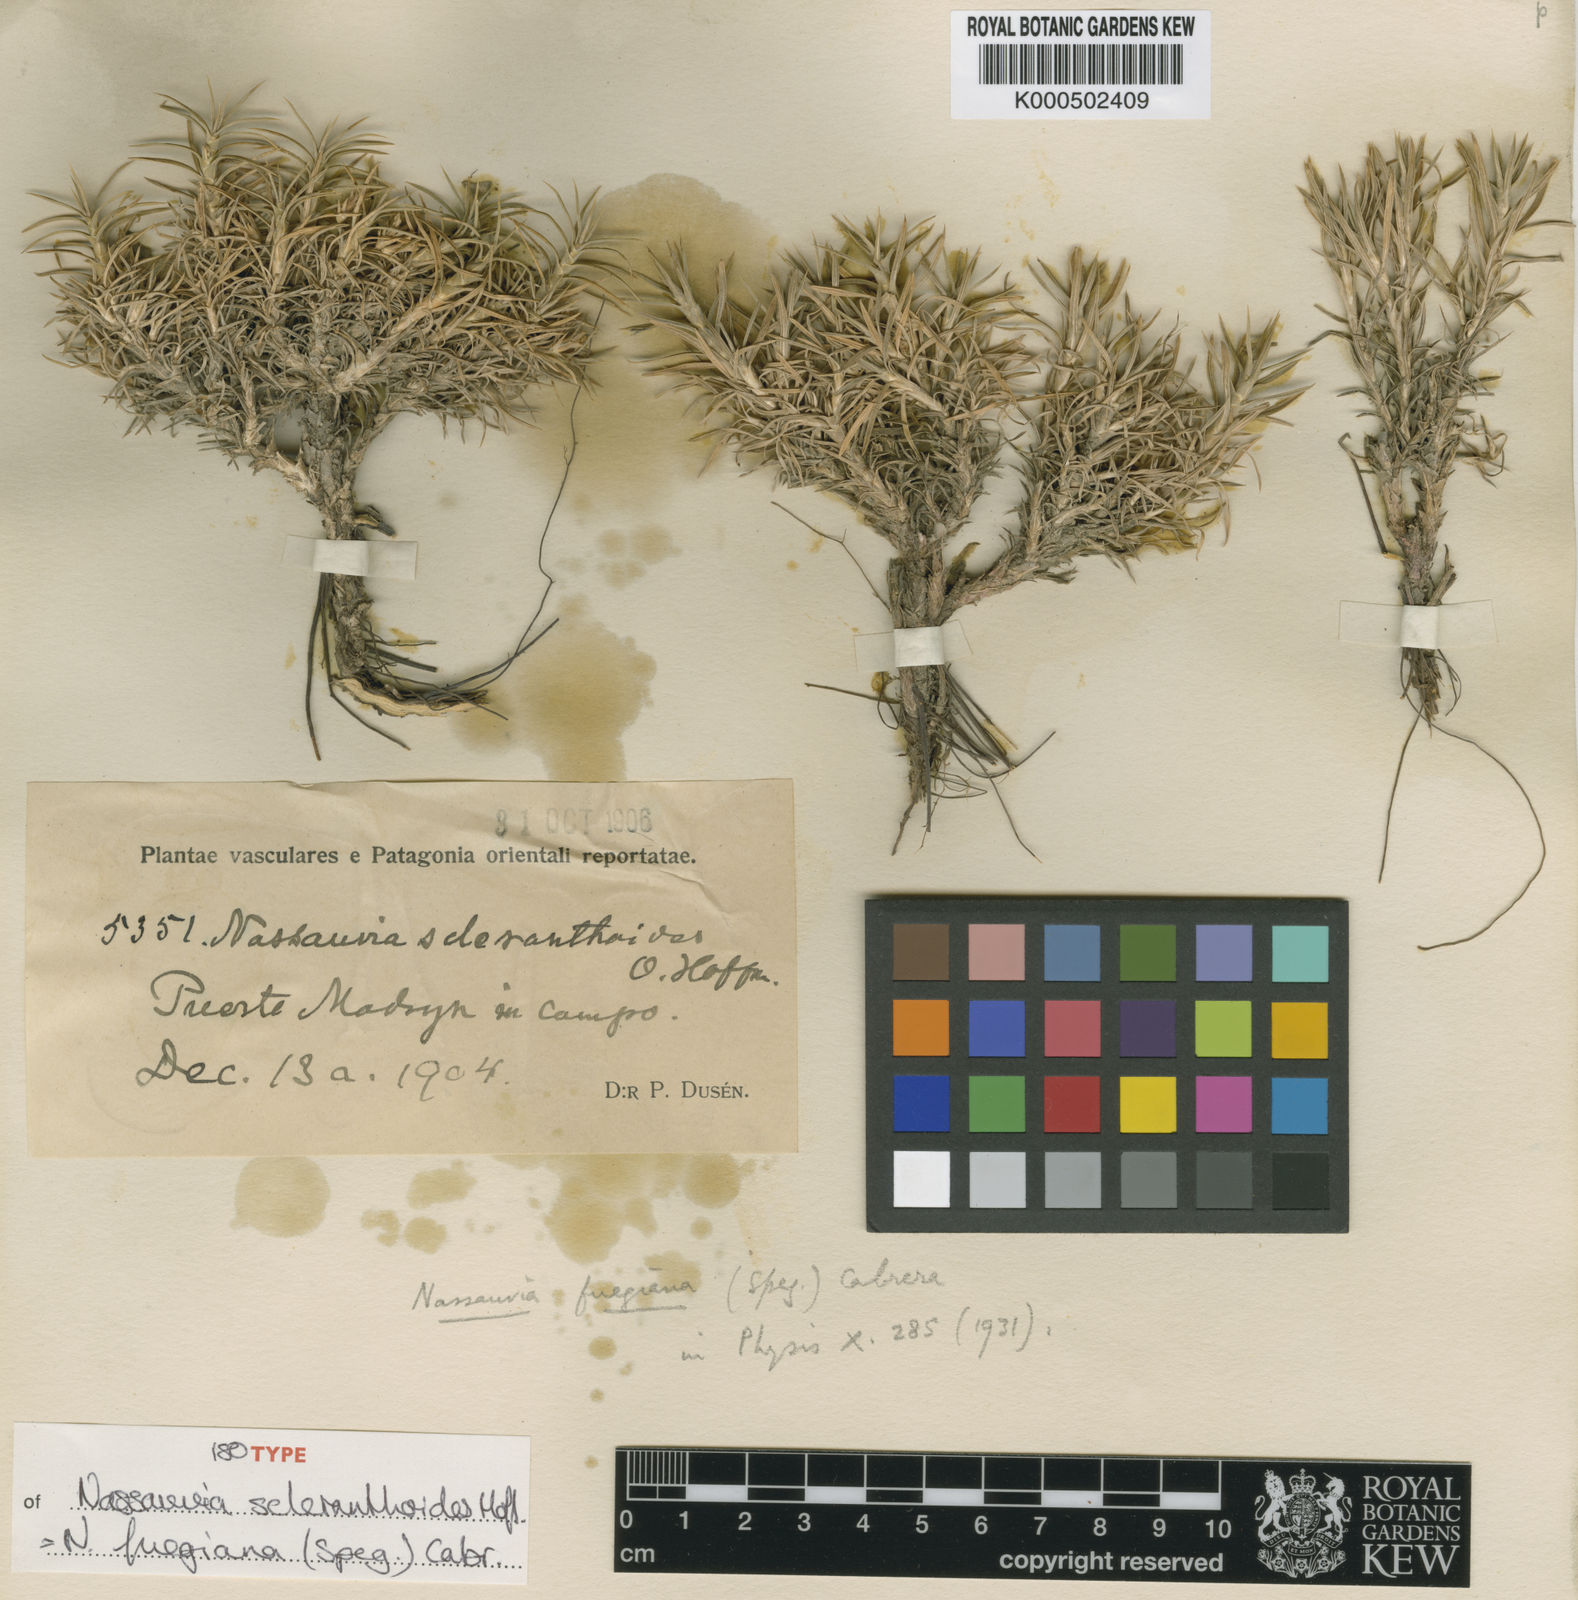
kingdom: Plantae
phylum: Tracheophyta
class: Magnoliopsida
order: Asterales
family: Asteraceae
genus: Nassauvia
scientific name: Nassauvia fuegiana
